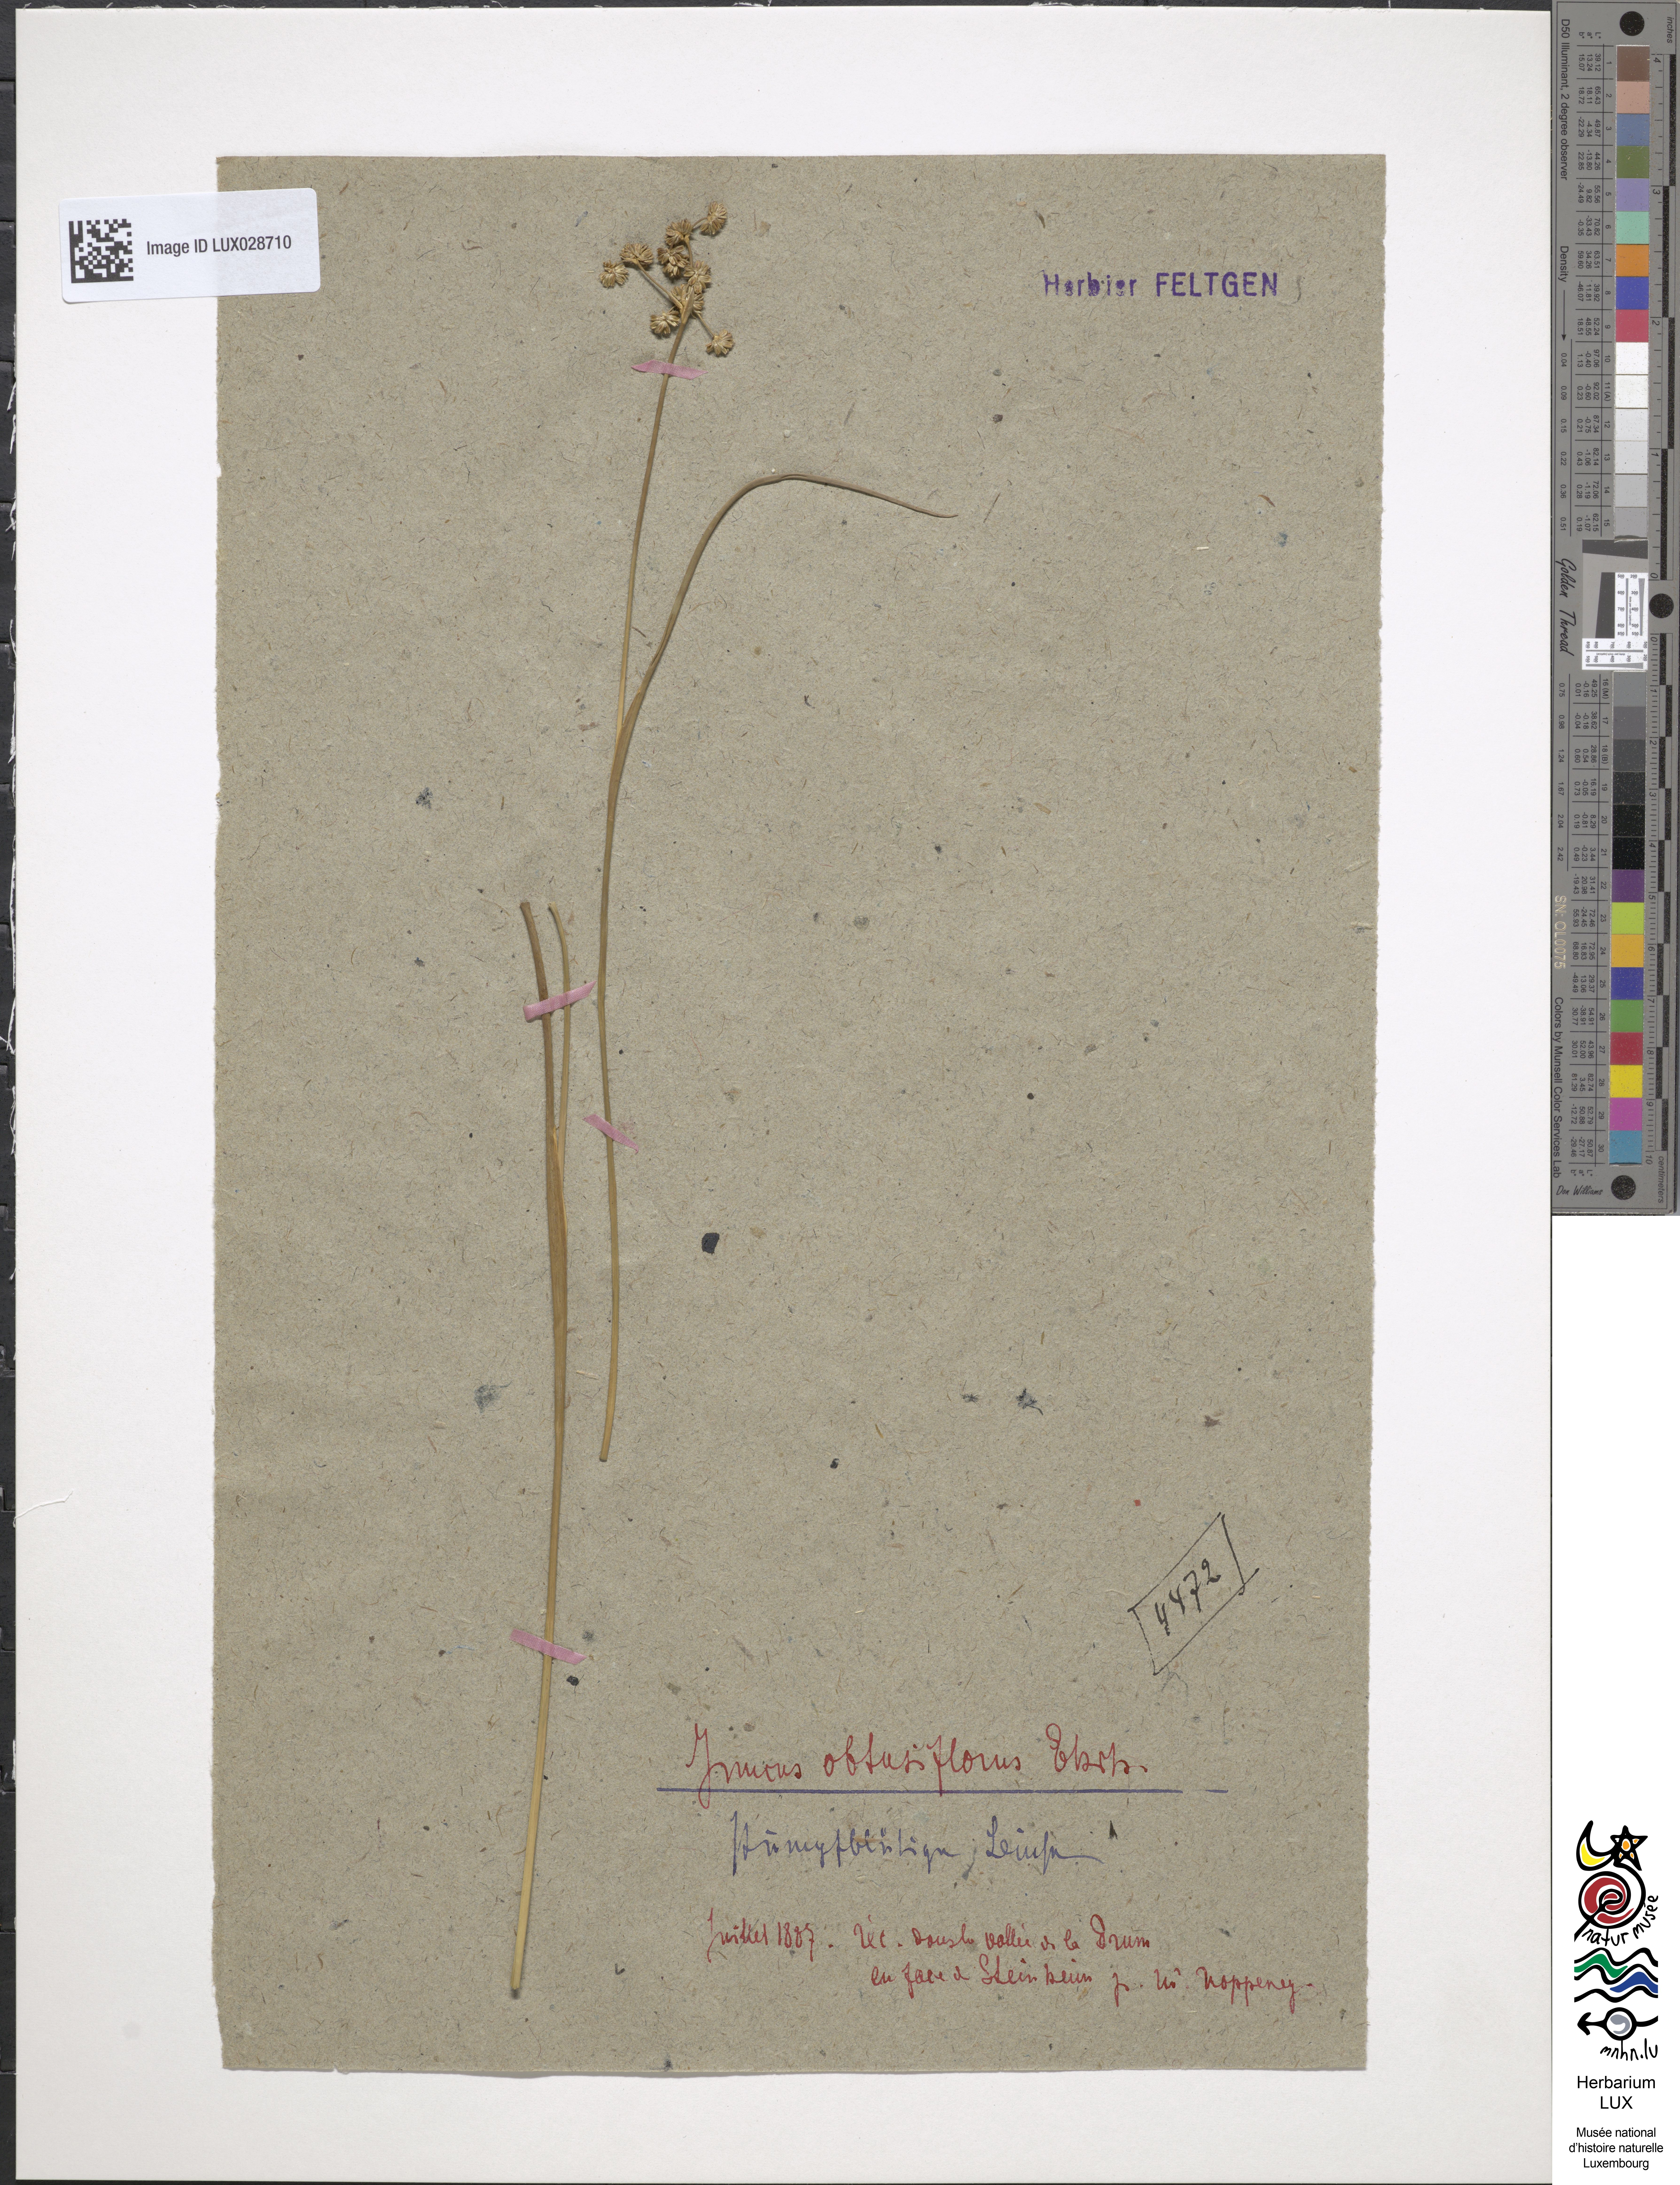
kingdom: Plantae
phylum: Tracheophyta
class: Liliopsida
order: Poales
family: Juncaceae
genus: Juncus
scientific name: Juncus subnodulosus
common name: Blunt-flowered rush
